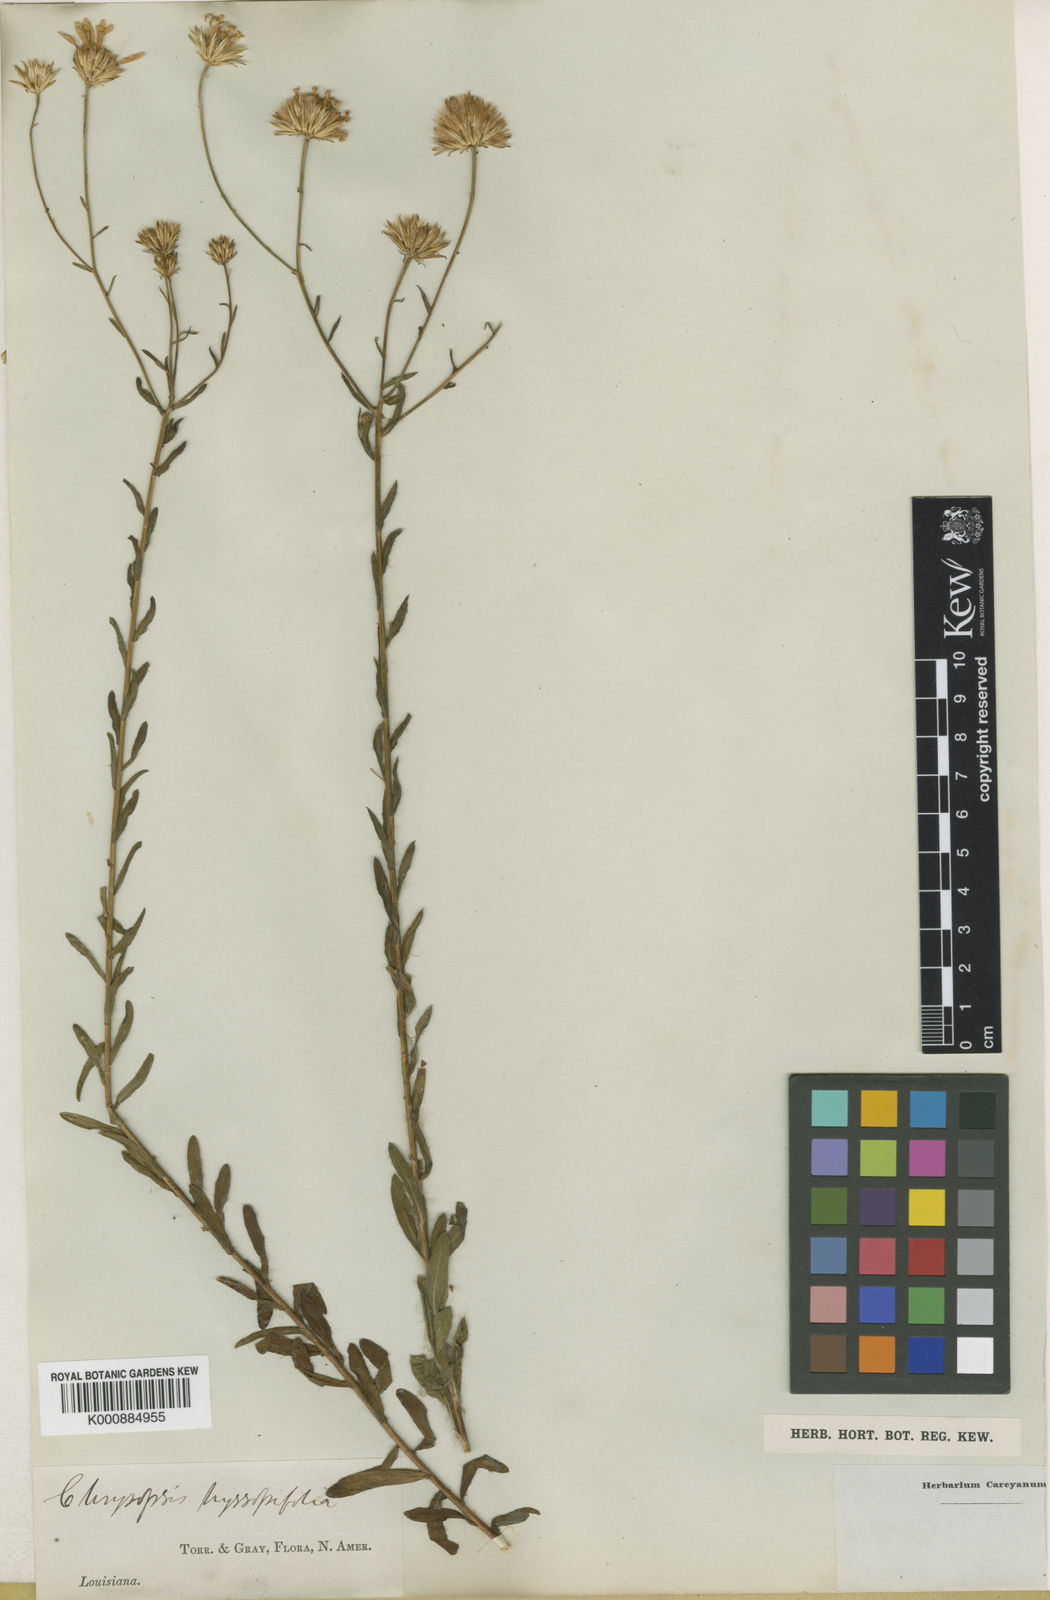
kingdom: Plantae
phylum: Tracheophyta
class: Magnoliopsida
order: Asterales
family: Asteraceae
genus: Heterotheca
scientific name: Heterotheca
